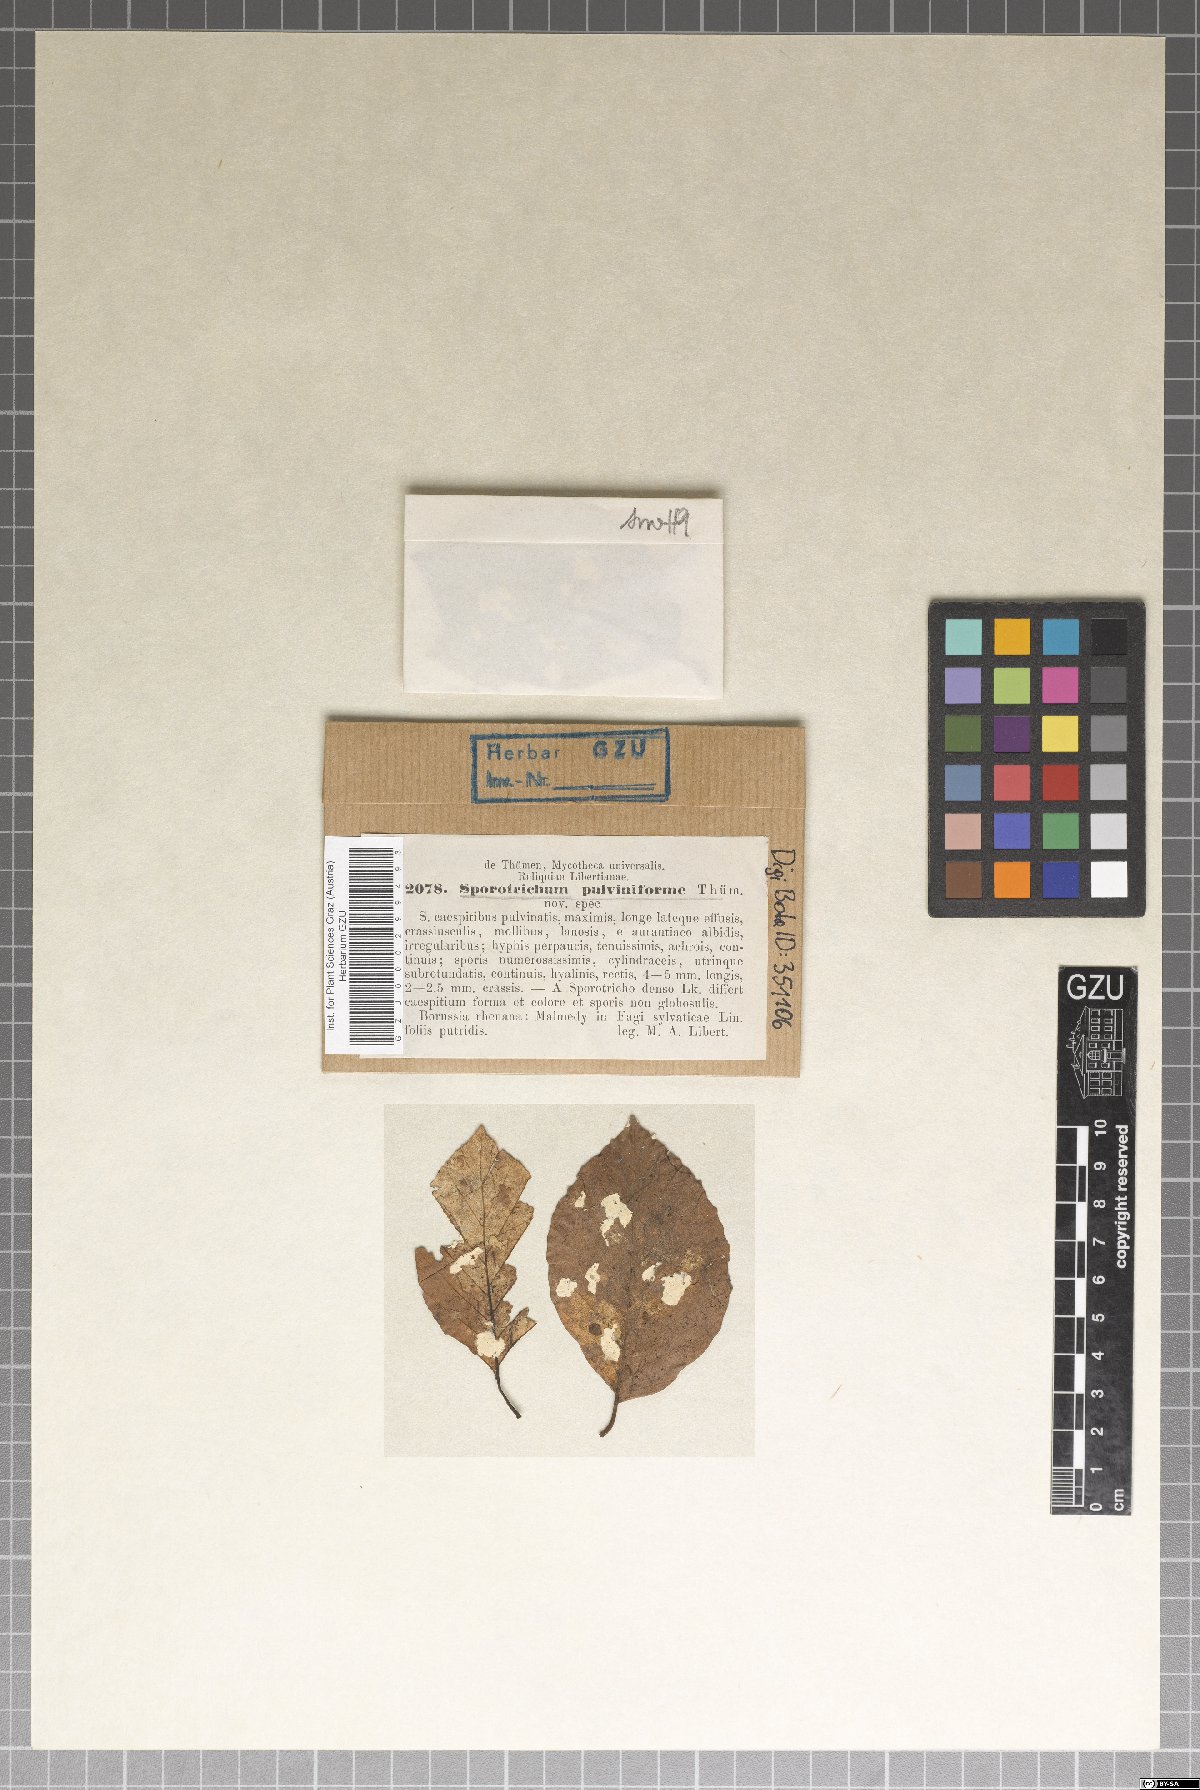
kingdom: Fungi
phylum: Ascomycota
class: Sordariomycetes
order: Hypocreales
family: Hypocreaceae
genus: Trichoderma
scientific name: Trichoderma polysporum
